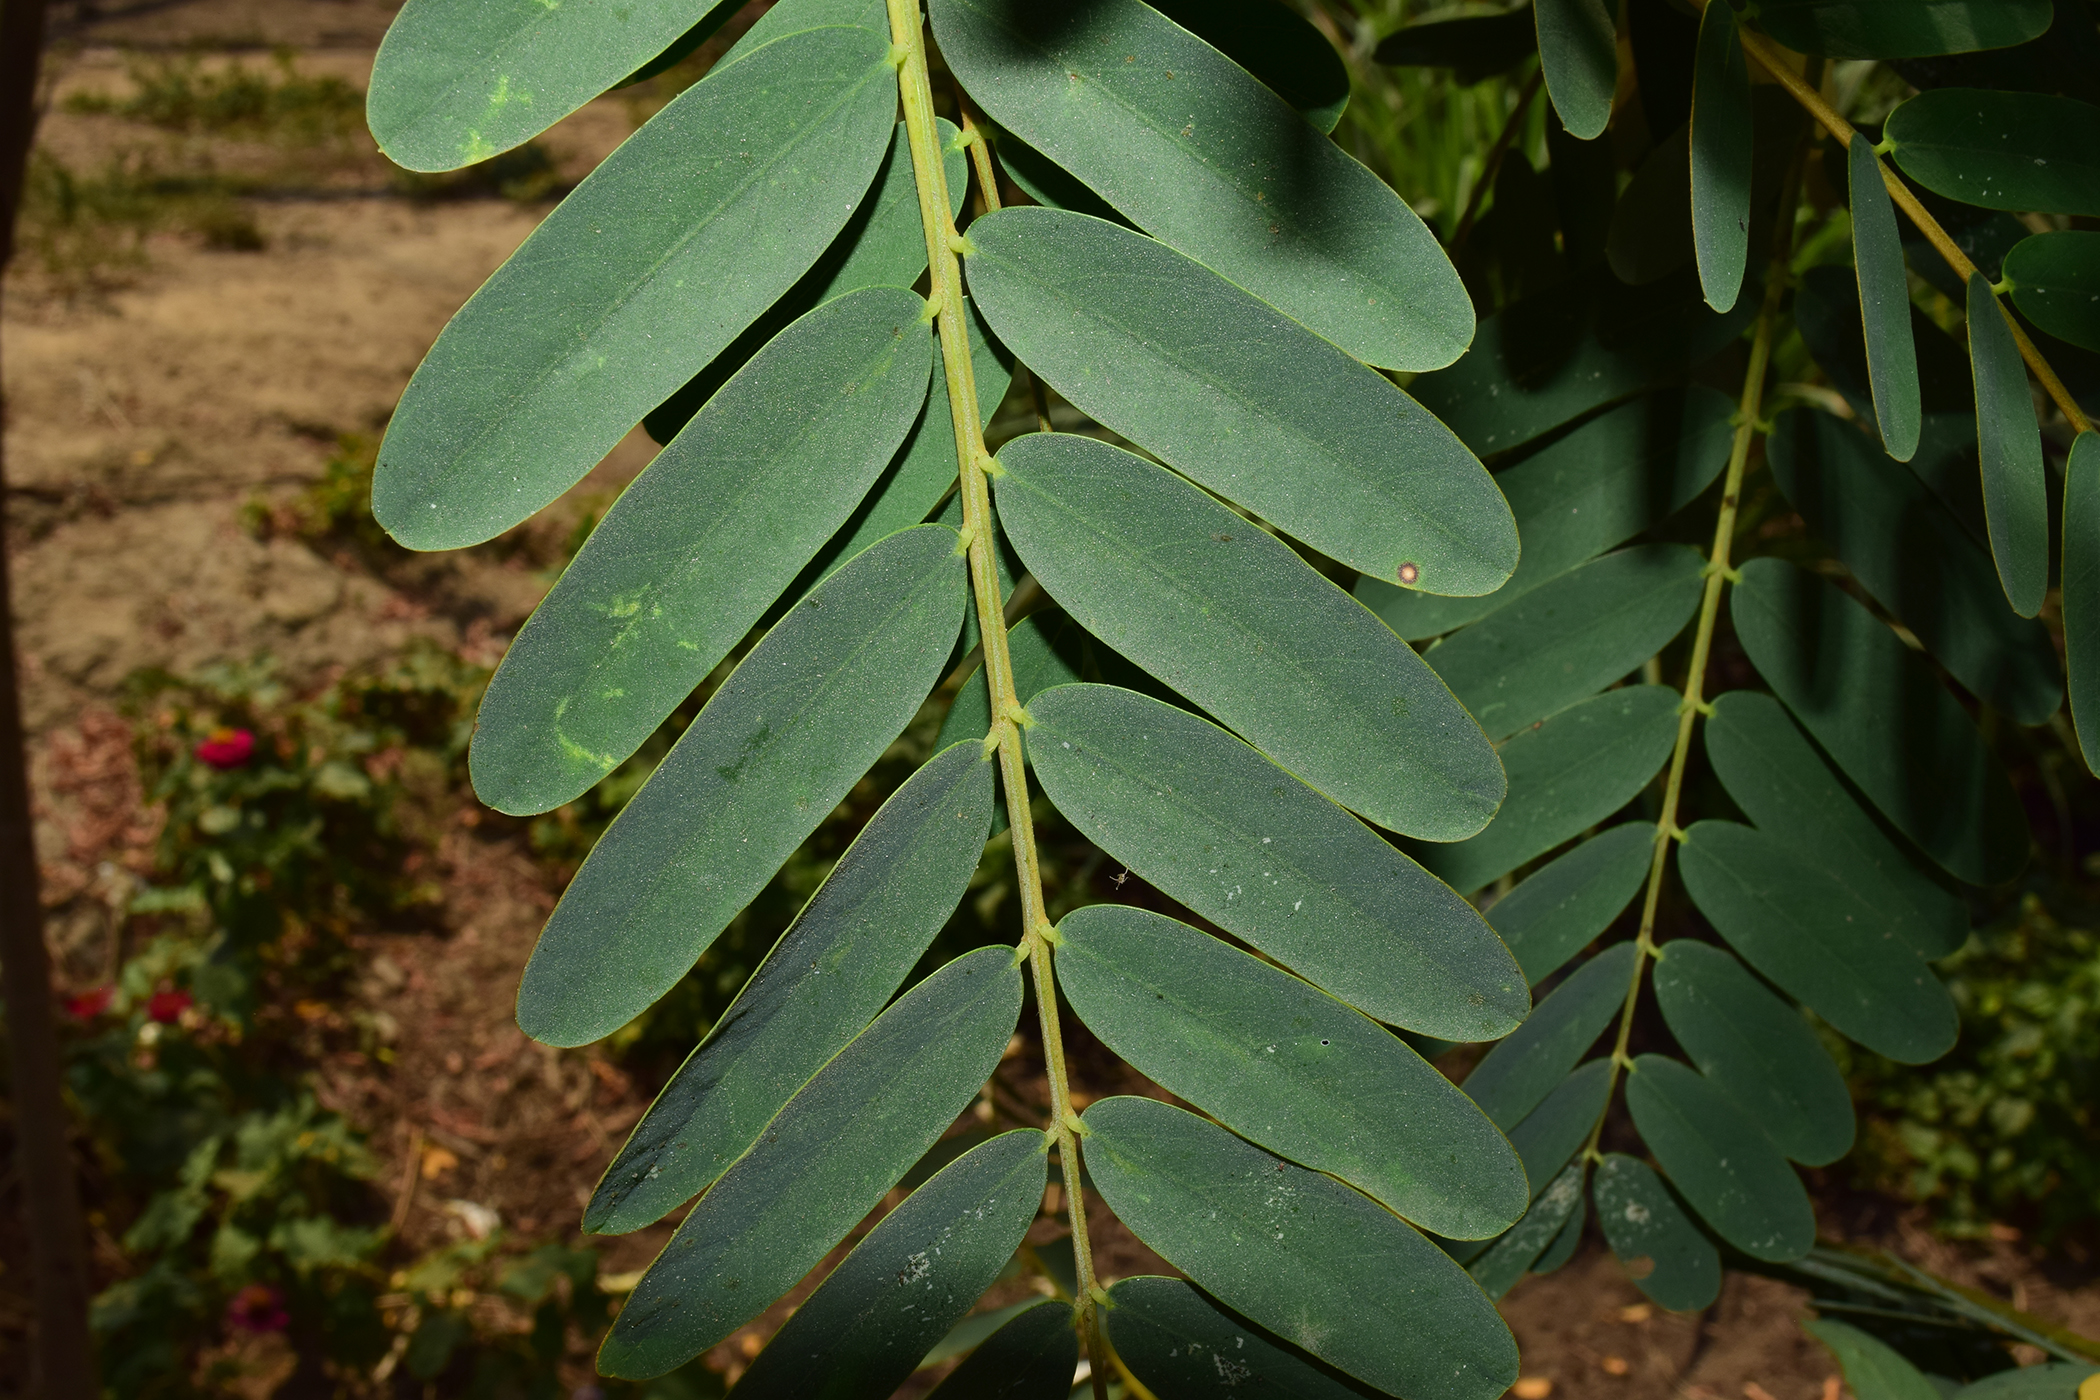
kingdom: Plantae
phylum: Tracheophyta
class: Magnoliopsida
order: Fabales
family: Fabaceae
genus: Sesbania
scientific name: Sesbania grandiflora
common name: Vegetable-hummingbird
